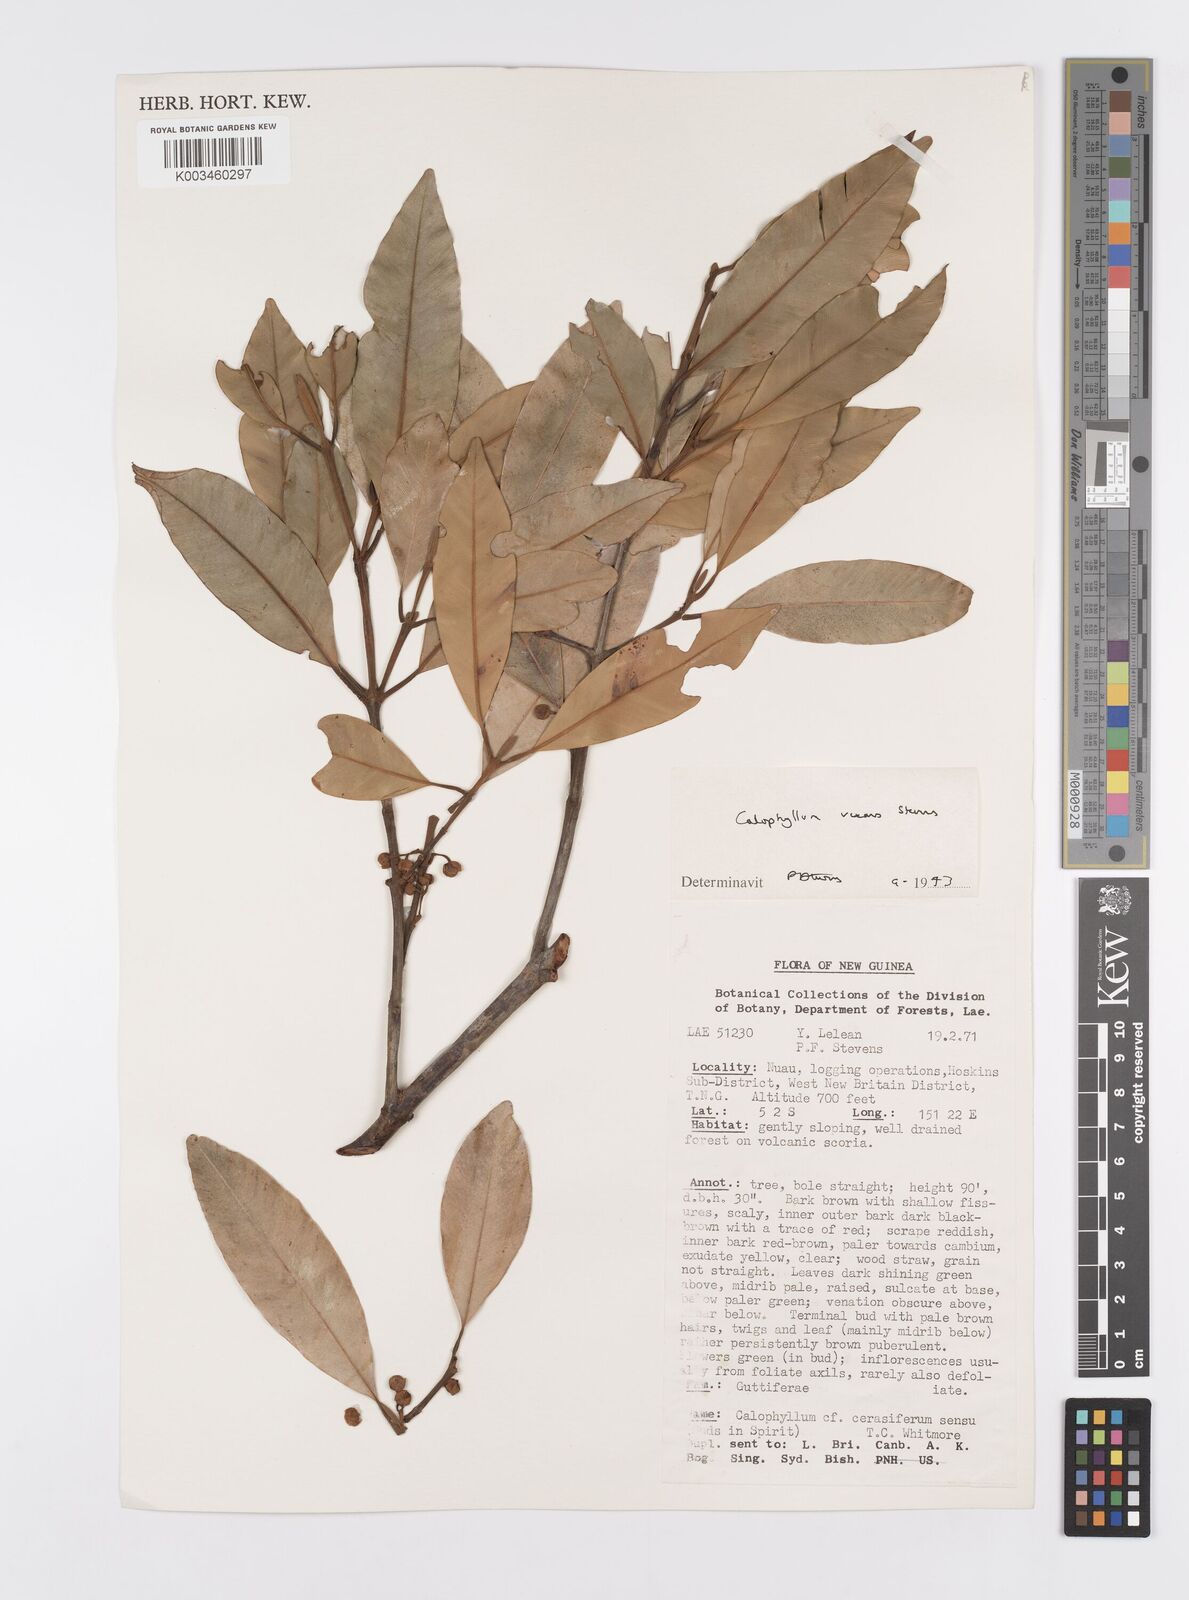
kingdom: Plantae
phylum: Tracheophyta
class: Magnoliopsida
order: Malpighiales
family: Calophyllaceae
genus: Calophyllum
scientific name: Calophyllum vexans
